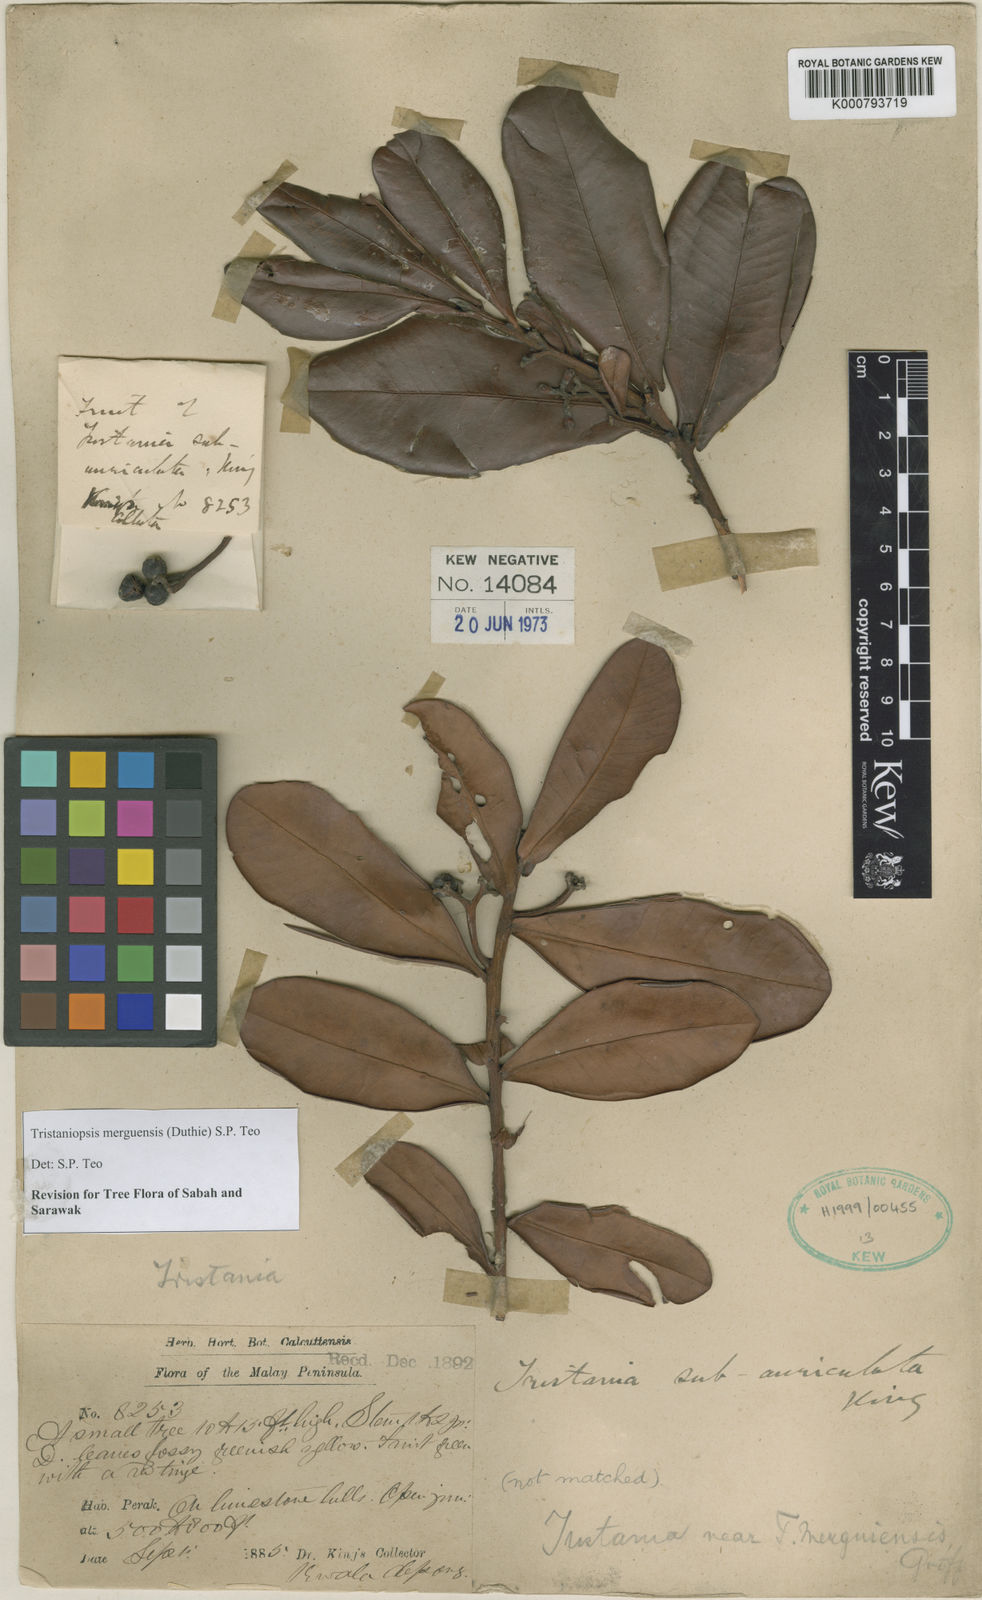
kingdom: Plantae
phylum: Tracheophyta
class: Magnoliopsida
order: Myrtales
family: Myrtaceae
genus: Tristaniopsis
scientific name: Tristaniopsis
